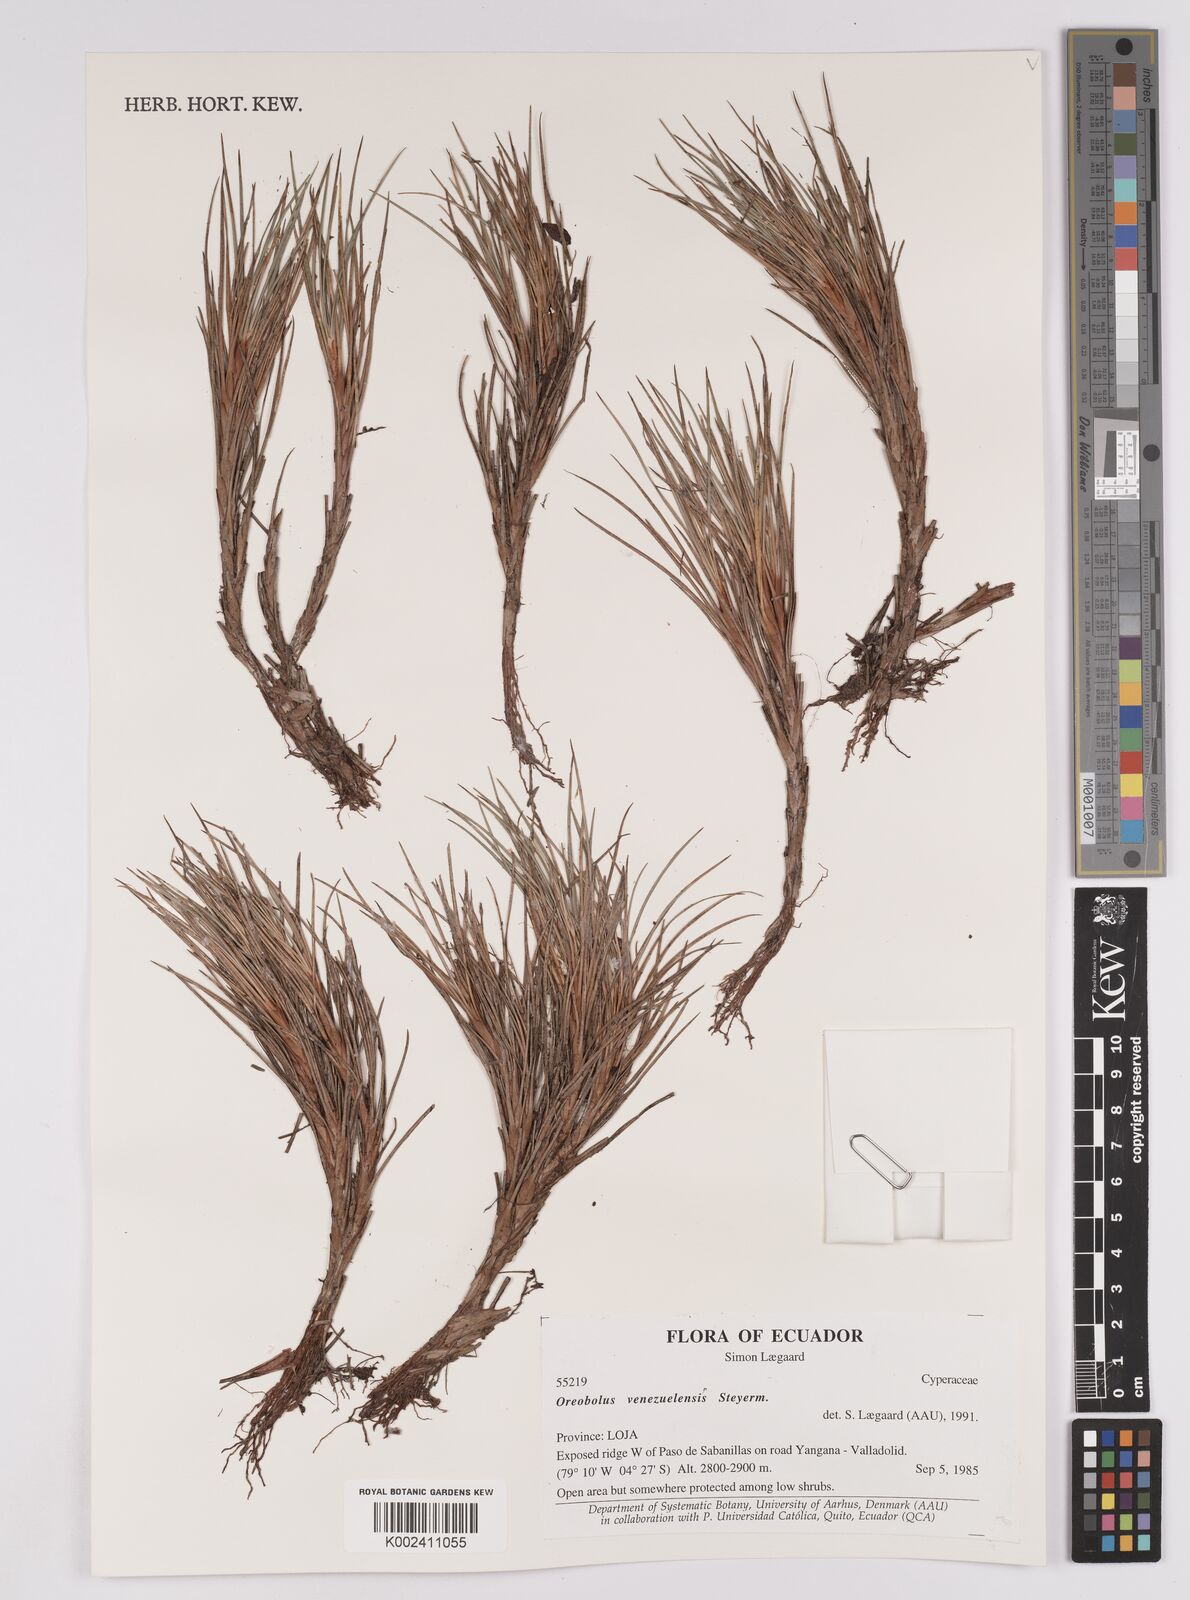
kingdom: Plantae
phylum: Tracheophyta
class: Liliopsida
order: Poales
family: Cyperaceae
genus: Oreobolus
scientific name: Oreobolus venezuelensis
